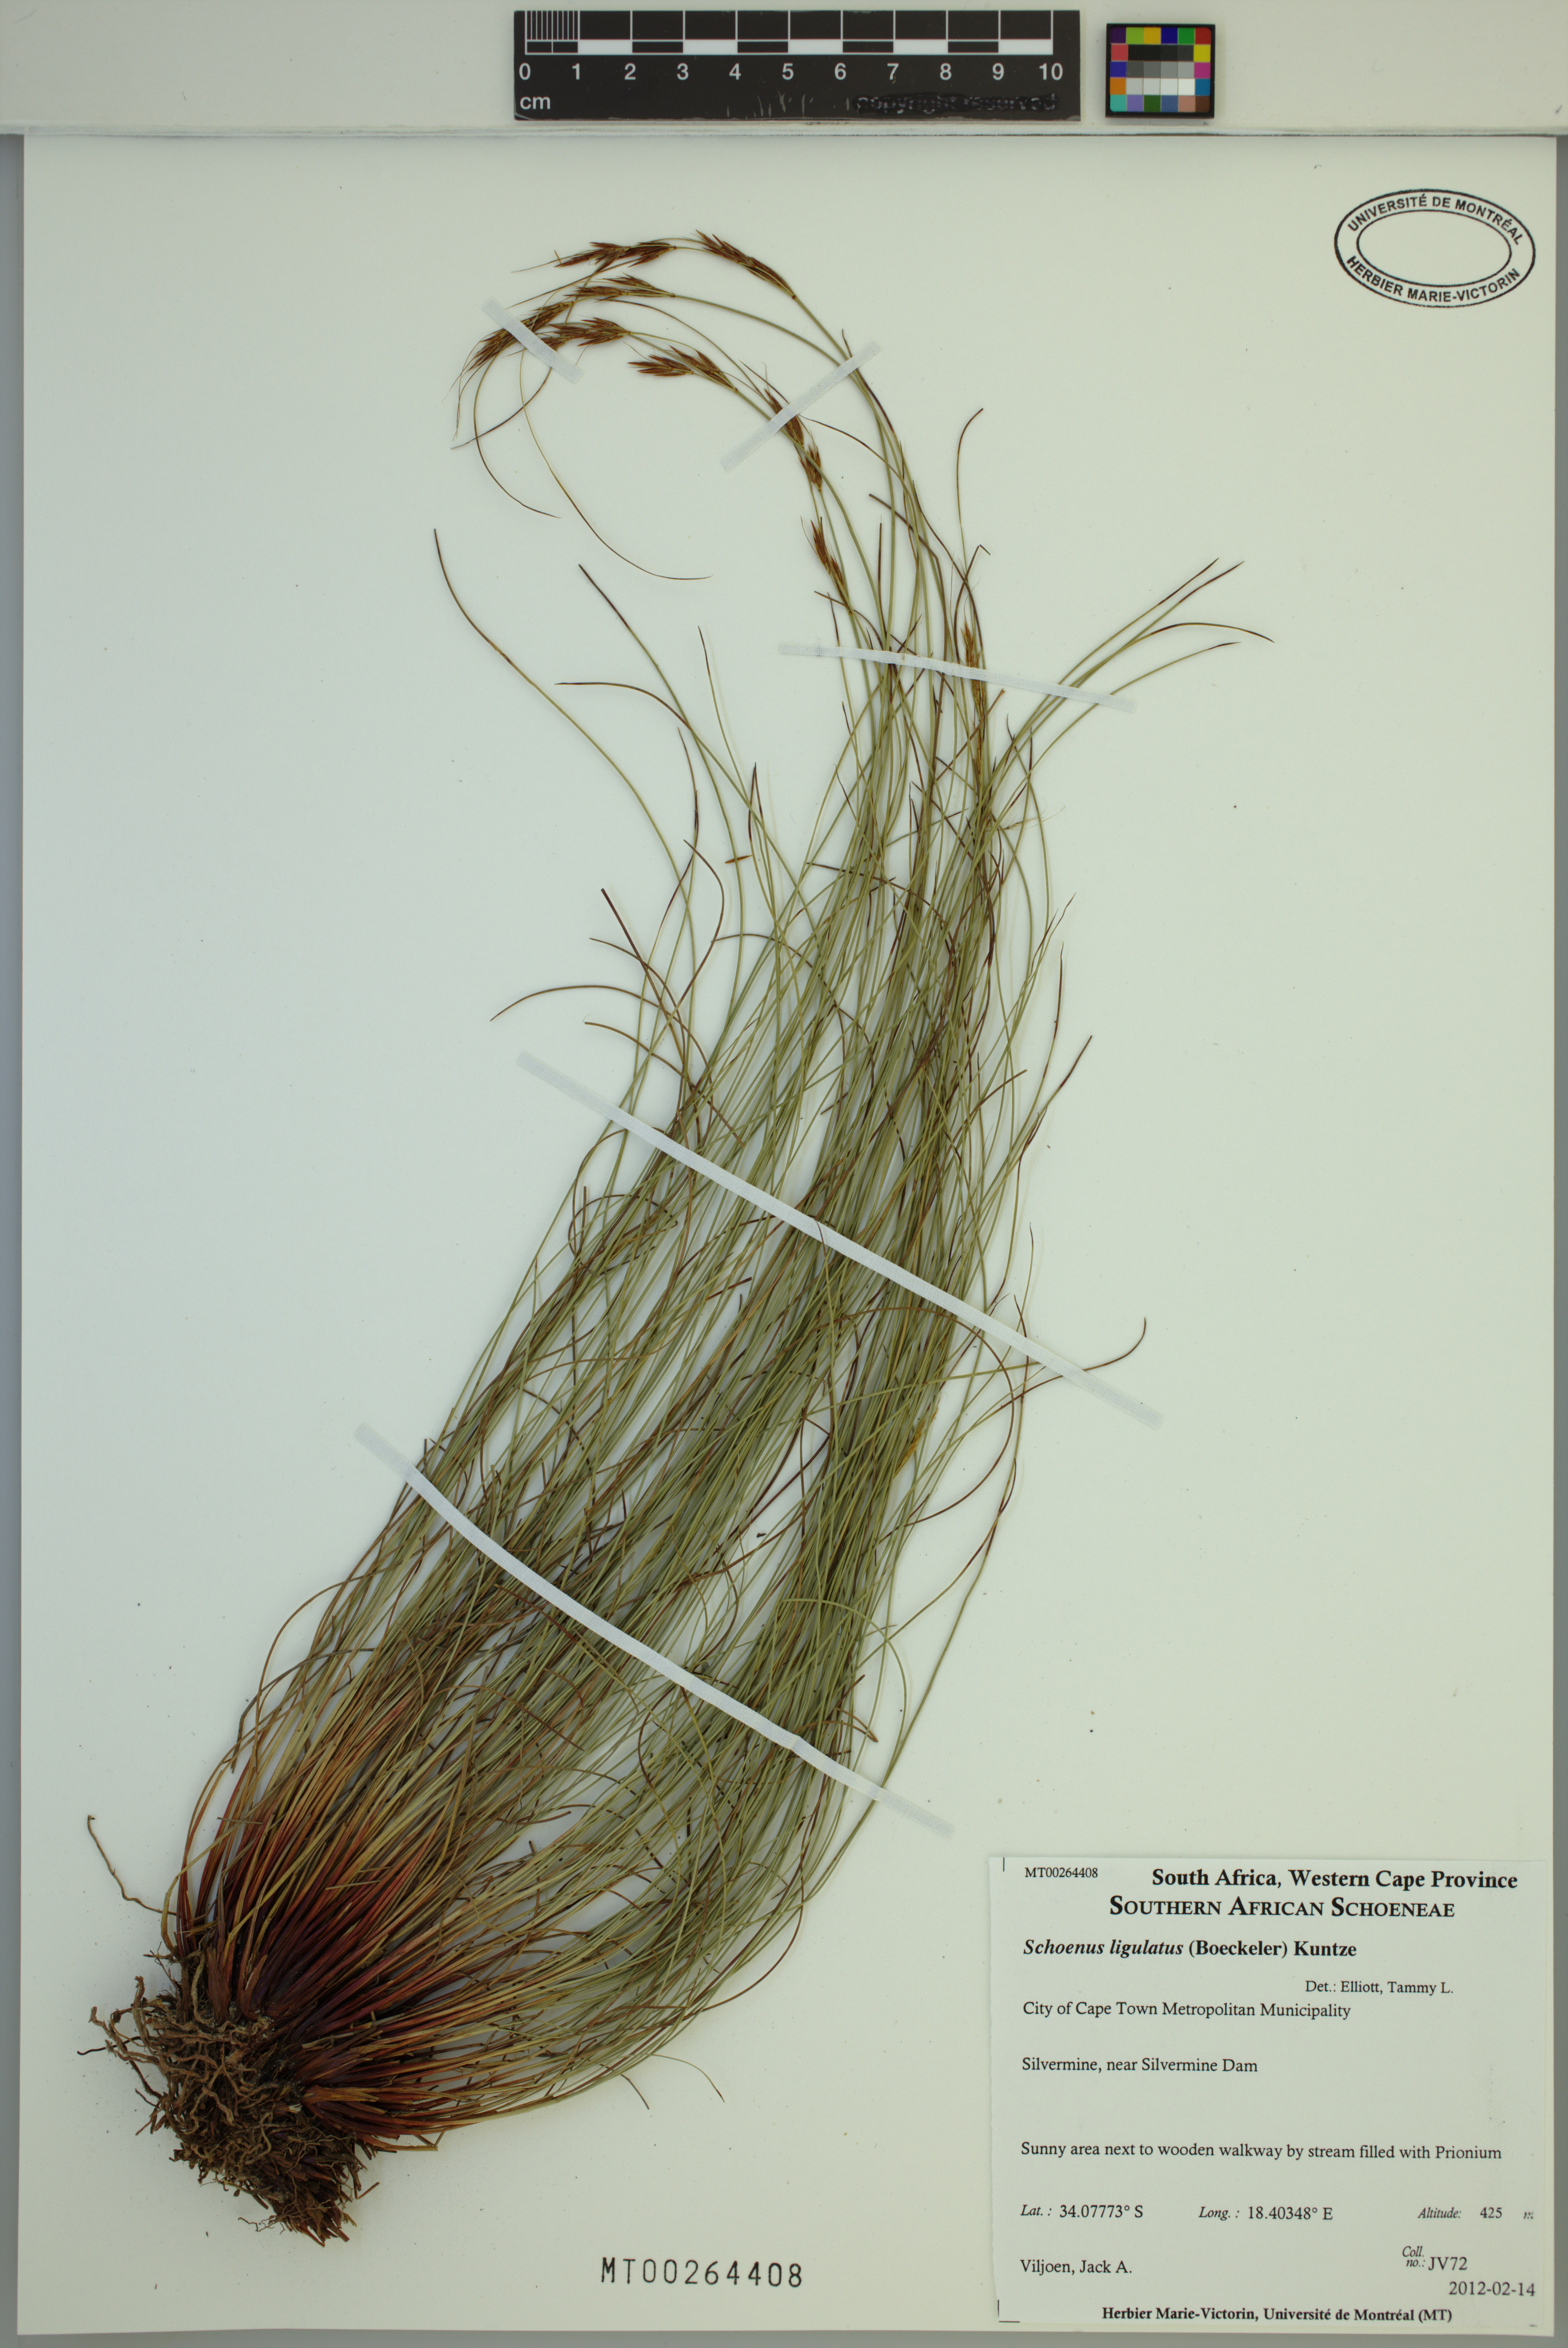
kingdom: Plantae
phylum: Tracheophyta
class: Liliopsida
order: Poales
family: Cyperaceae
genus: Schoenus
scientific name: Schoenus ligulatus
